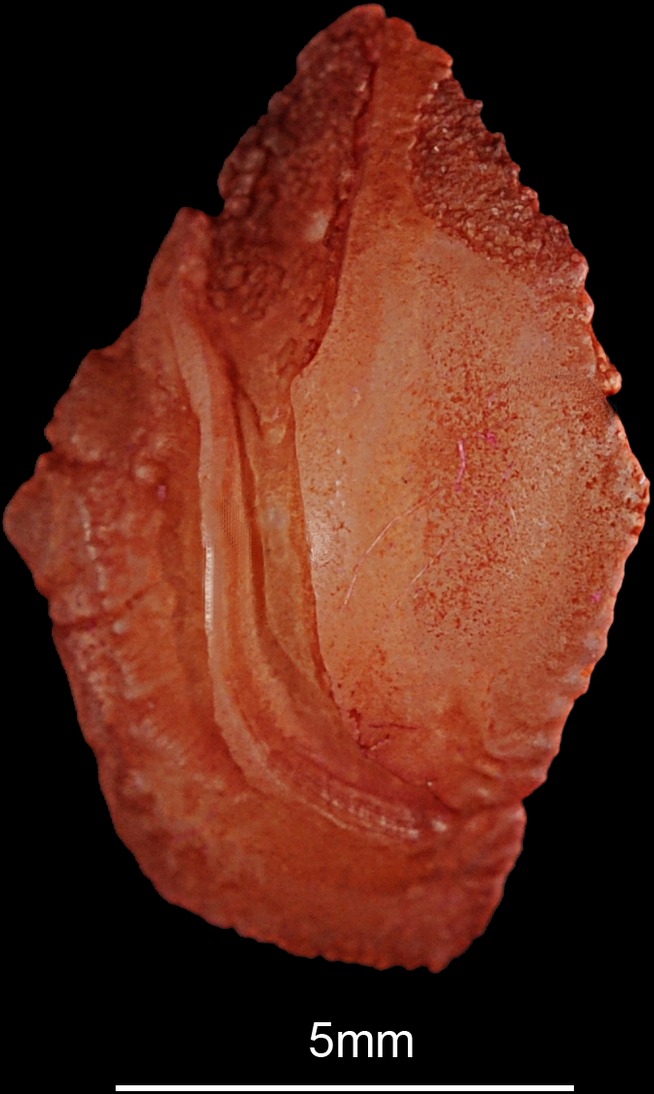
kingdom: Animalia
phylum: Chordata
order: Perciformes
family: Sparidae
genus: Pagrus
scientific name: Pagrus pagrus
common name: Red porgy
